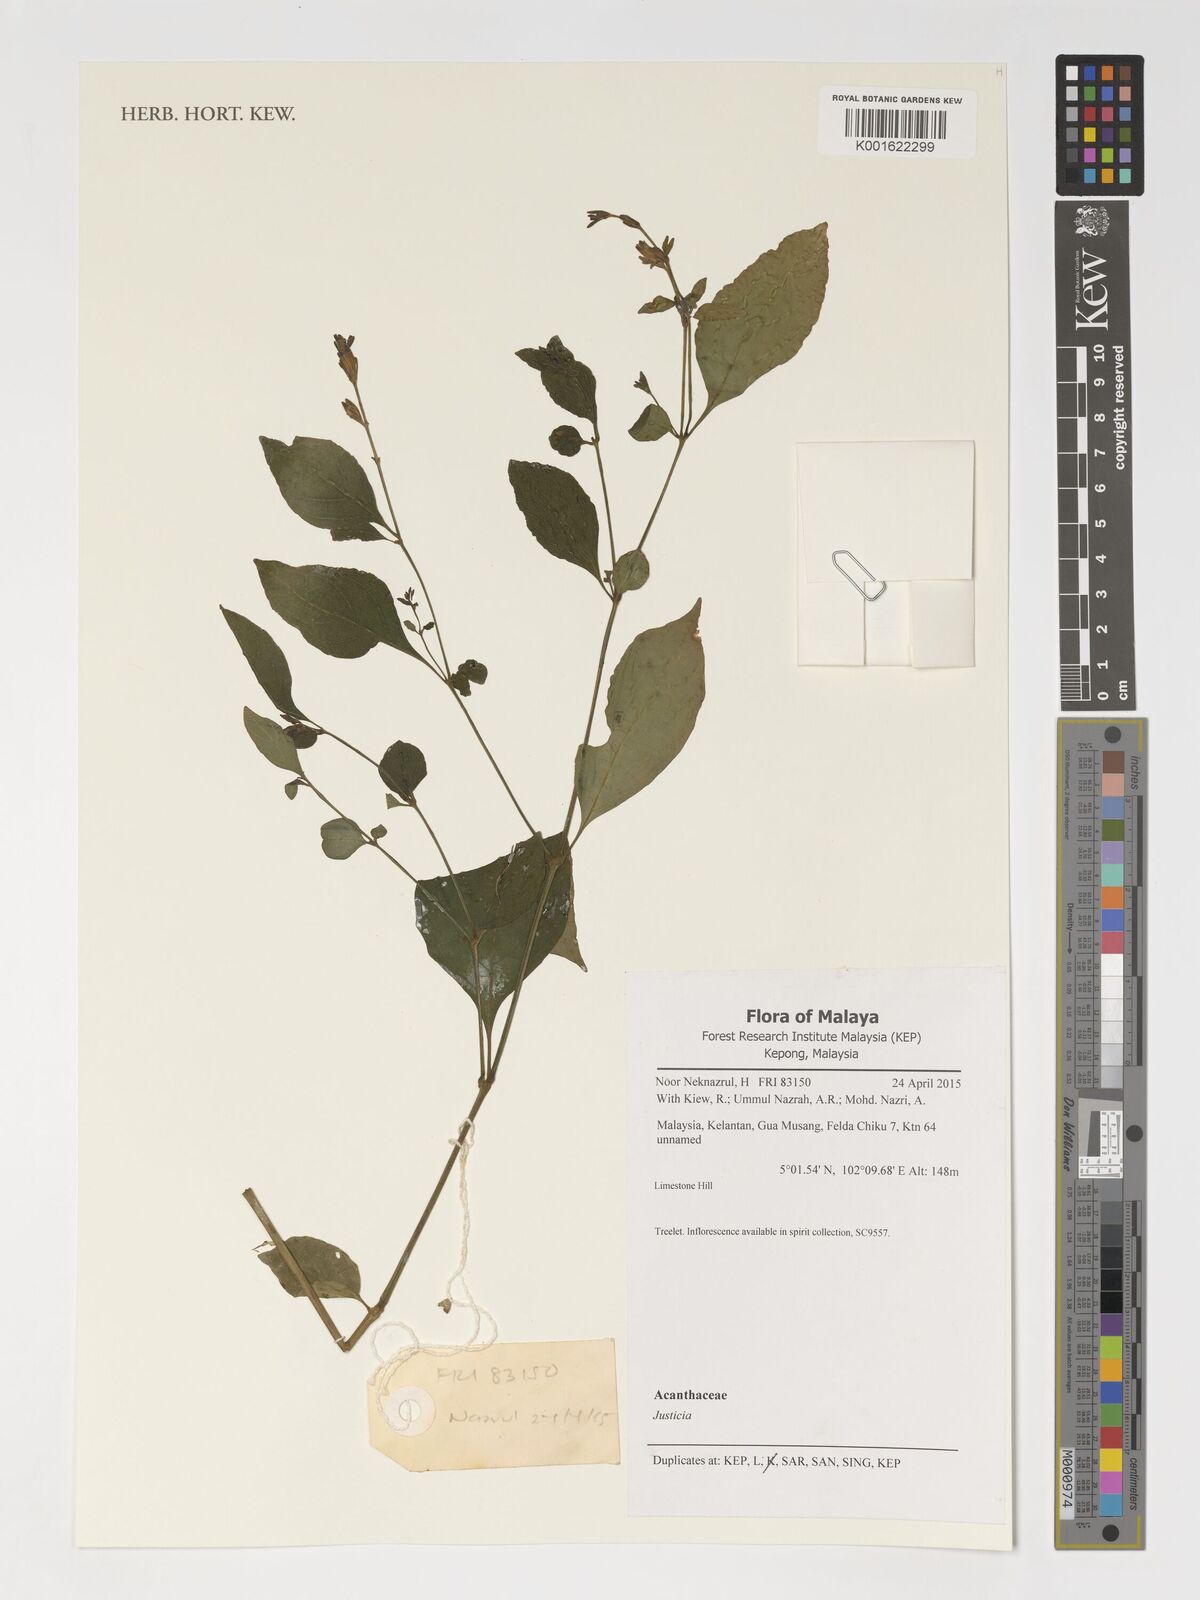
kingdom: Plantae
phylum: Tracheophyta
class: Magnoliopsida
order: Lamiales
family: Acanthaceae
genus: Justicia
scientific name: Justicia
